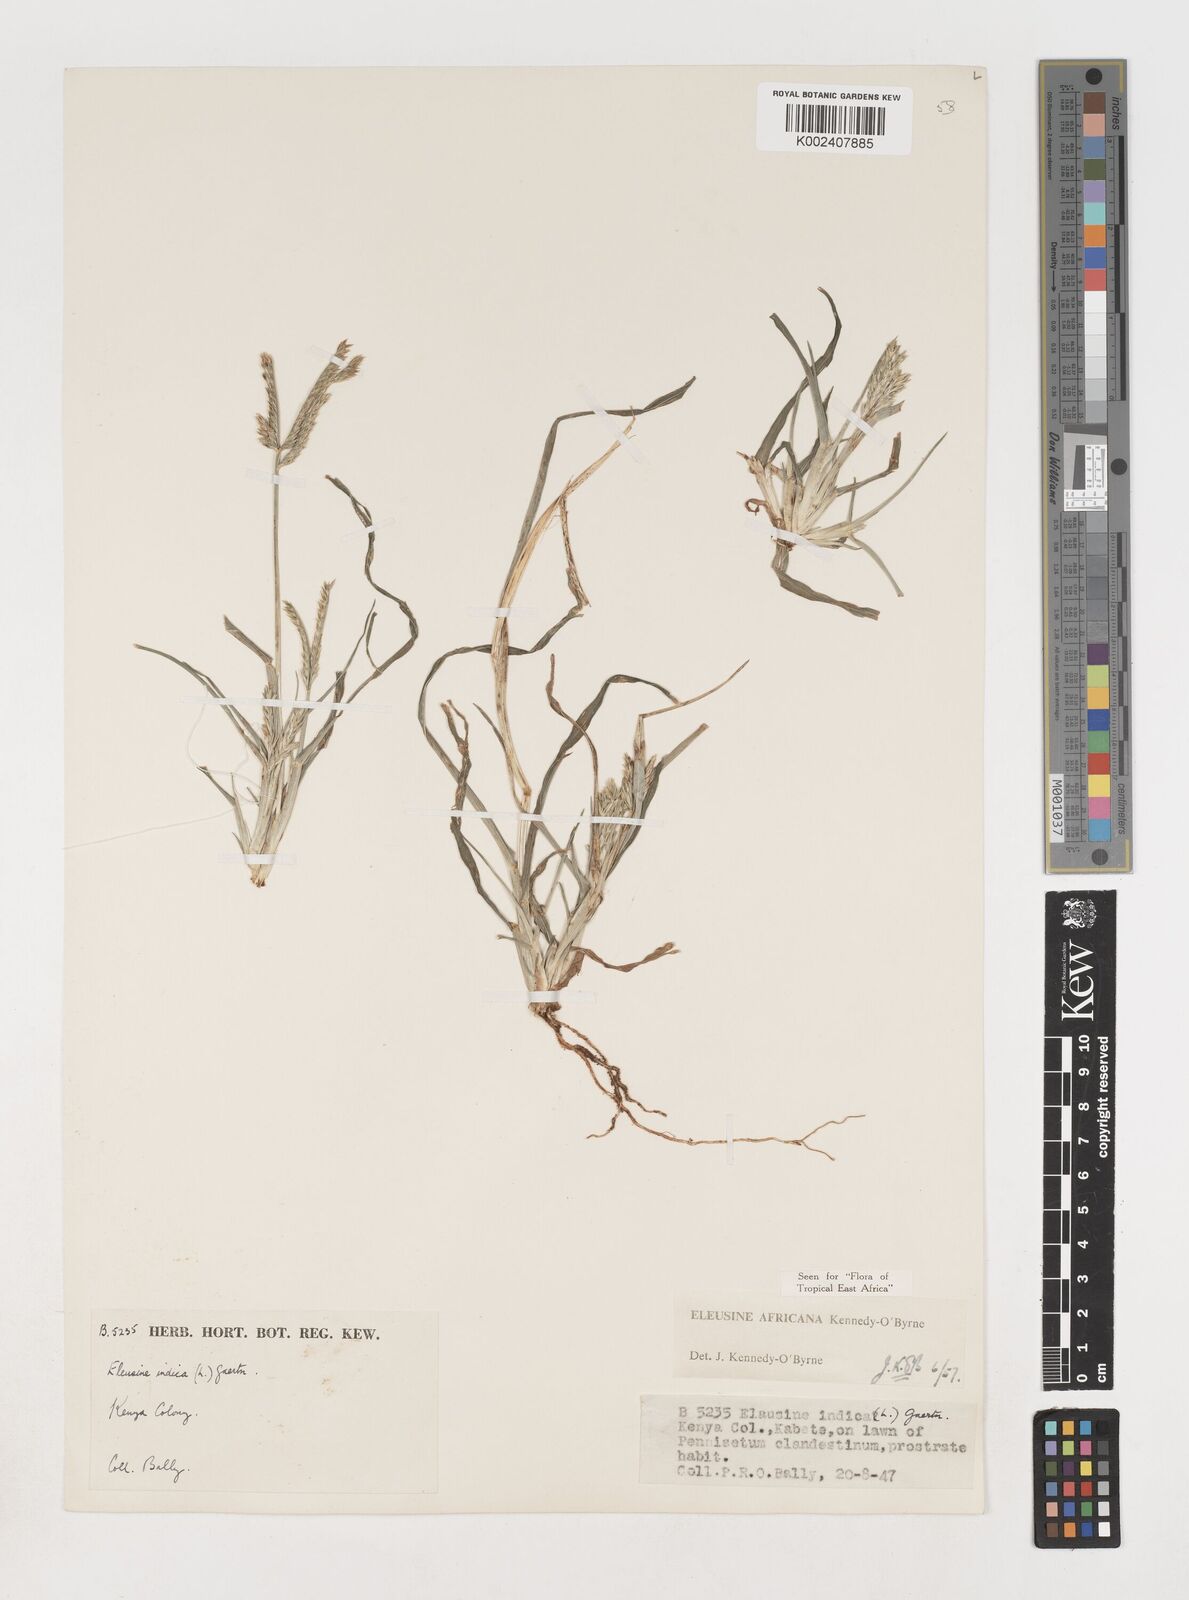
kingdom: Plantae
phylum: Tracheophyta
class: Liliopsida
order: Poales
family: Poaceae
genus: Eleusine
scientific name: Eleusine africana
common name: Wild african finger millet
